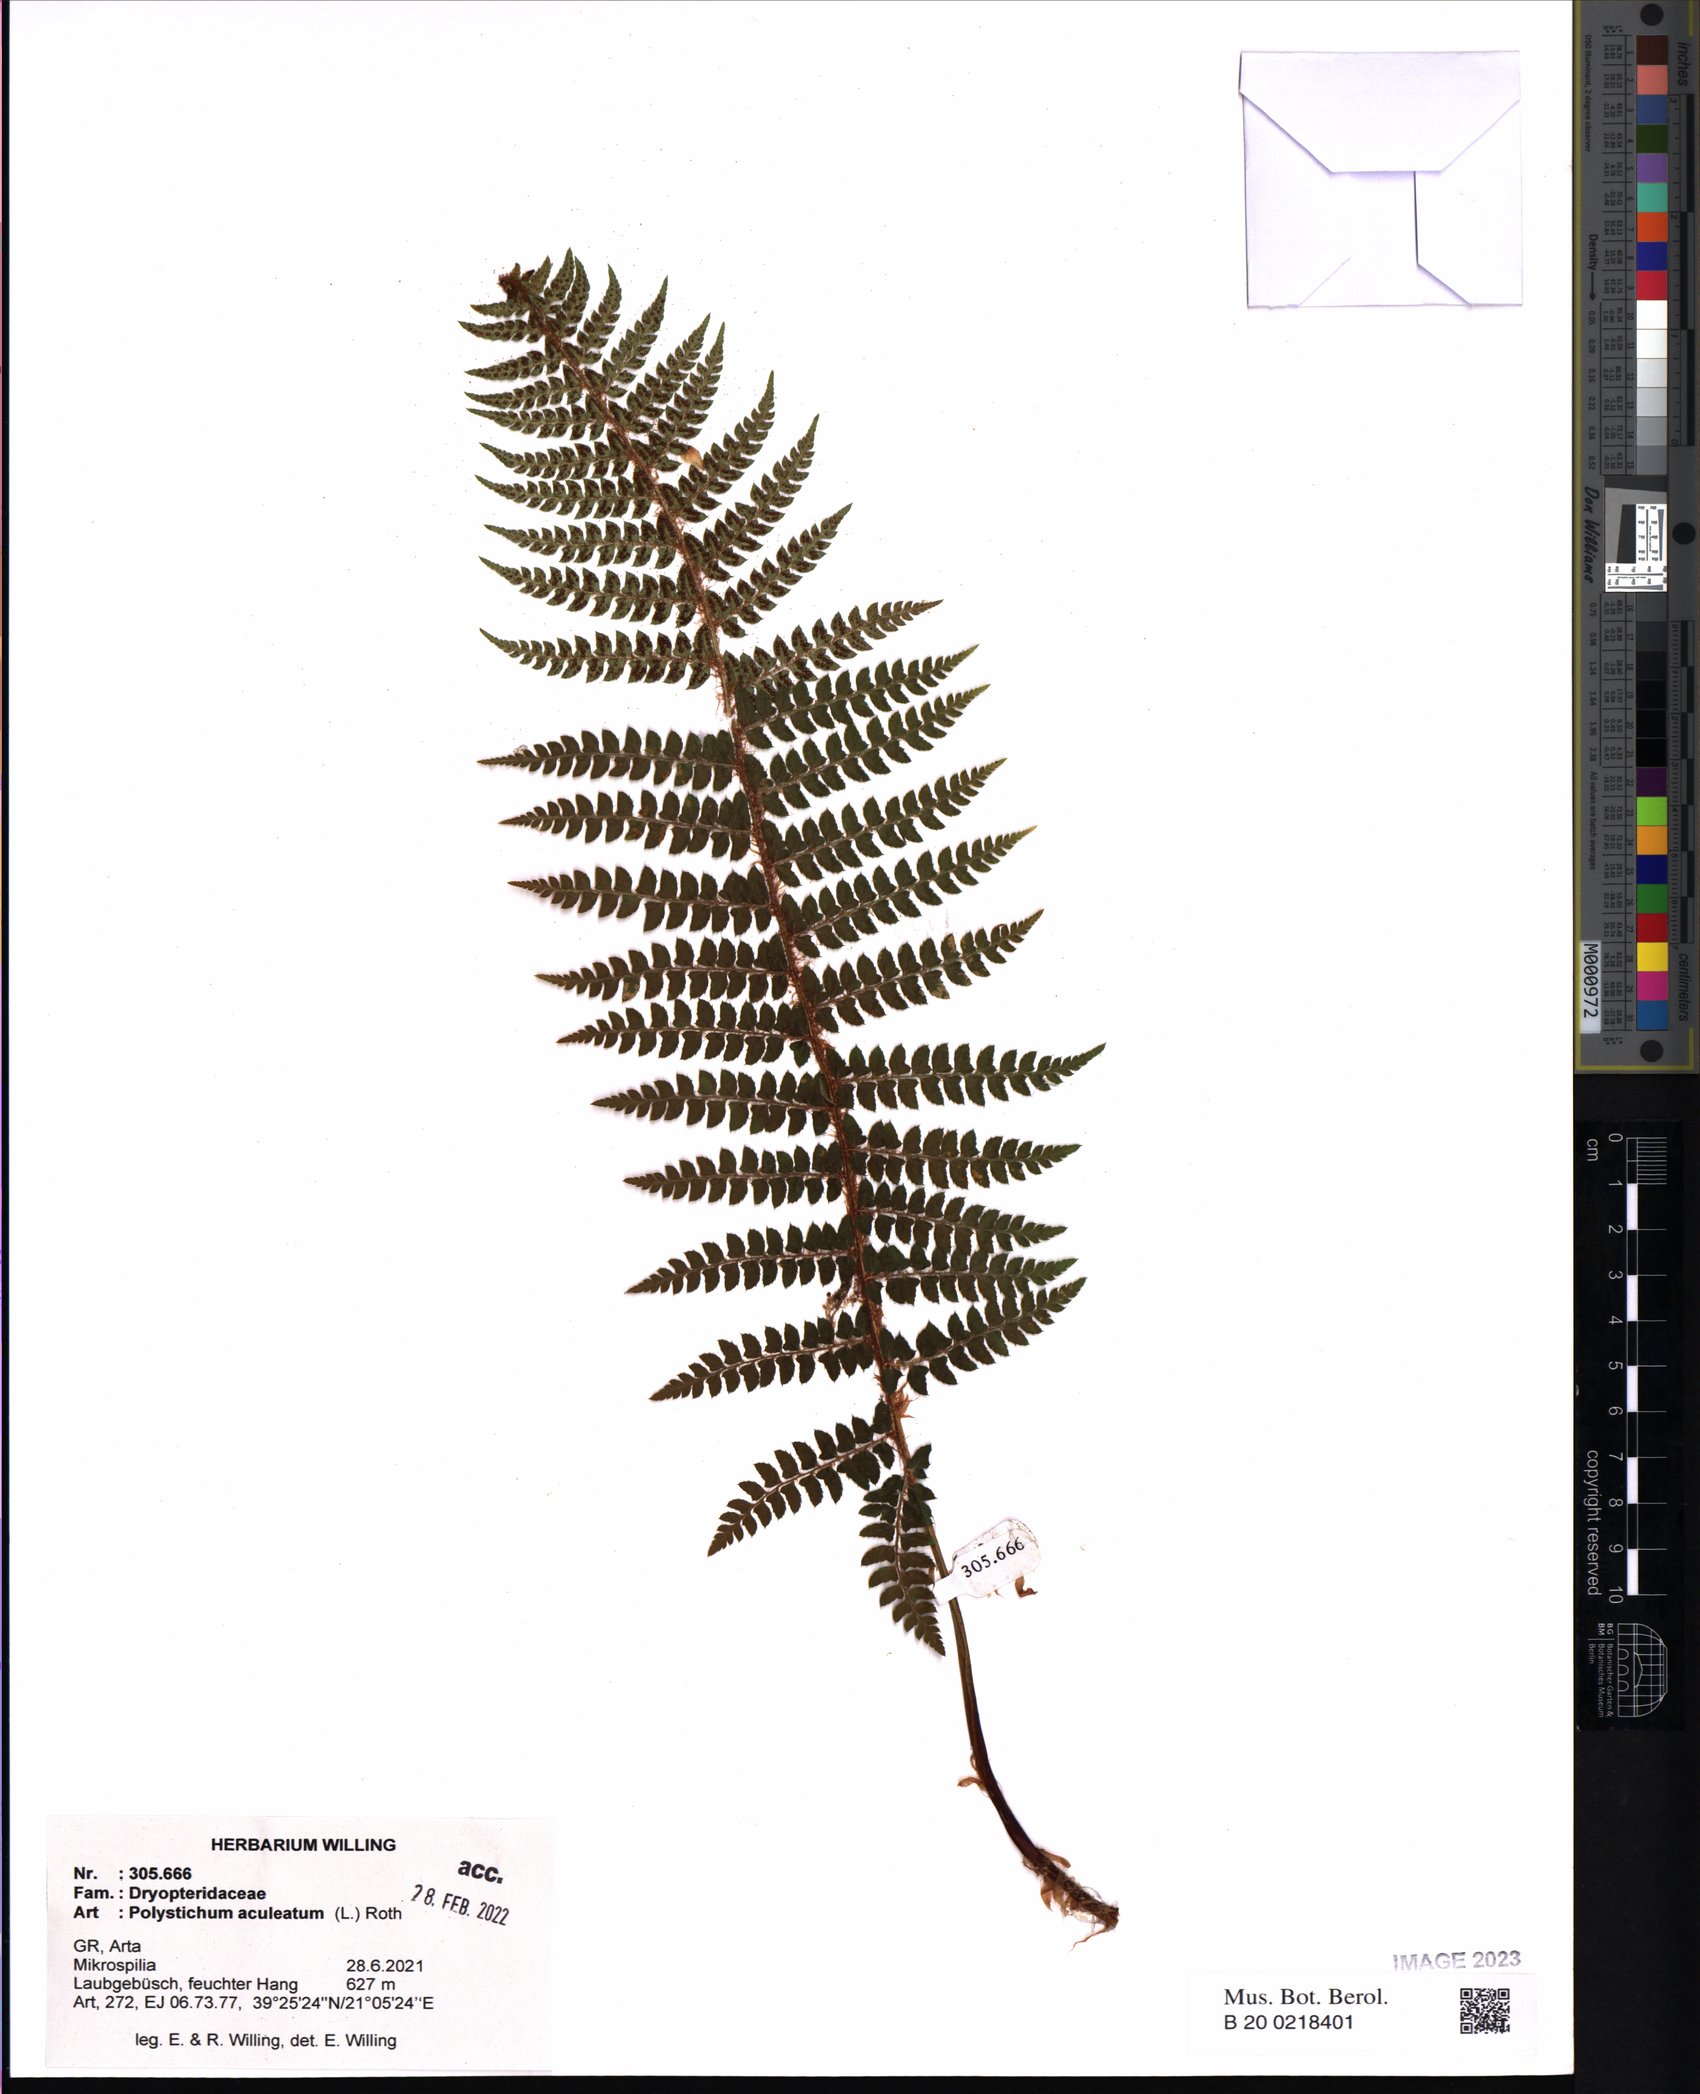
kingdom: Plantae
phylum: Tracheophyta
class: Polypodiopsida
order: Polypodiales
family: Dryopteridaceae
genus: Polystichum
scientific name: Polystichum aculeatum
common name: Hard shield-fern
